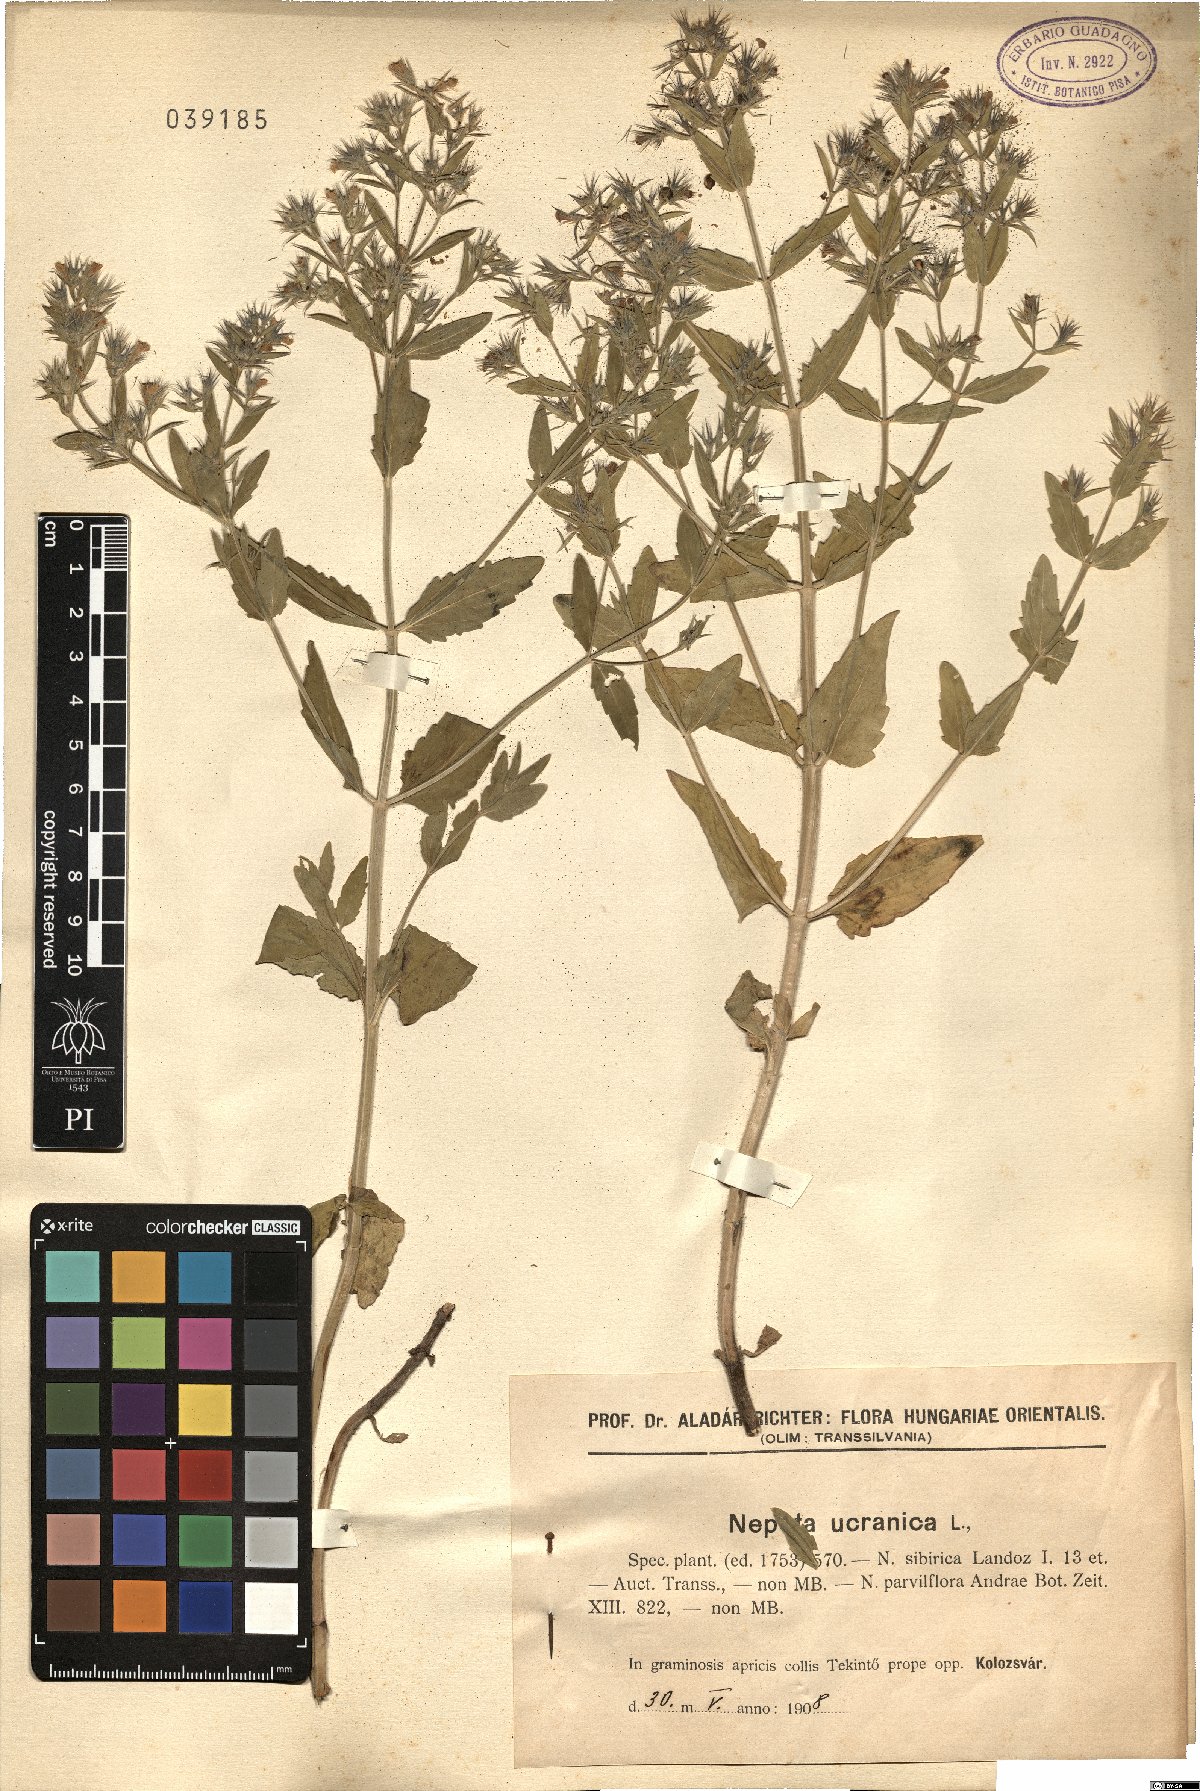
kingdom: Plantae
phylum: Tracheophyta
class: Magnoliopsida
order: Lamiales
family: Lamiaceae
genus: Nepeta
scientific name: Nepeta ucranica
